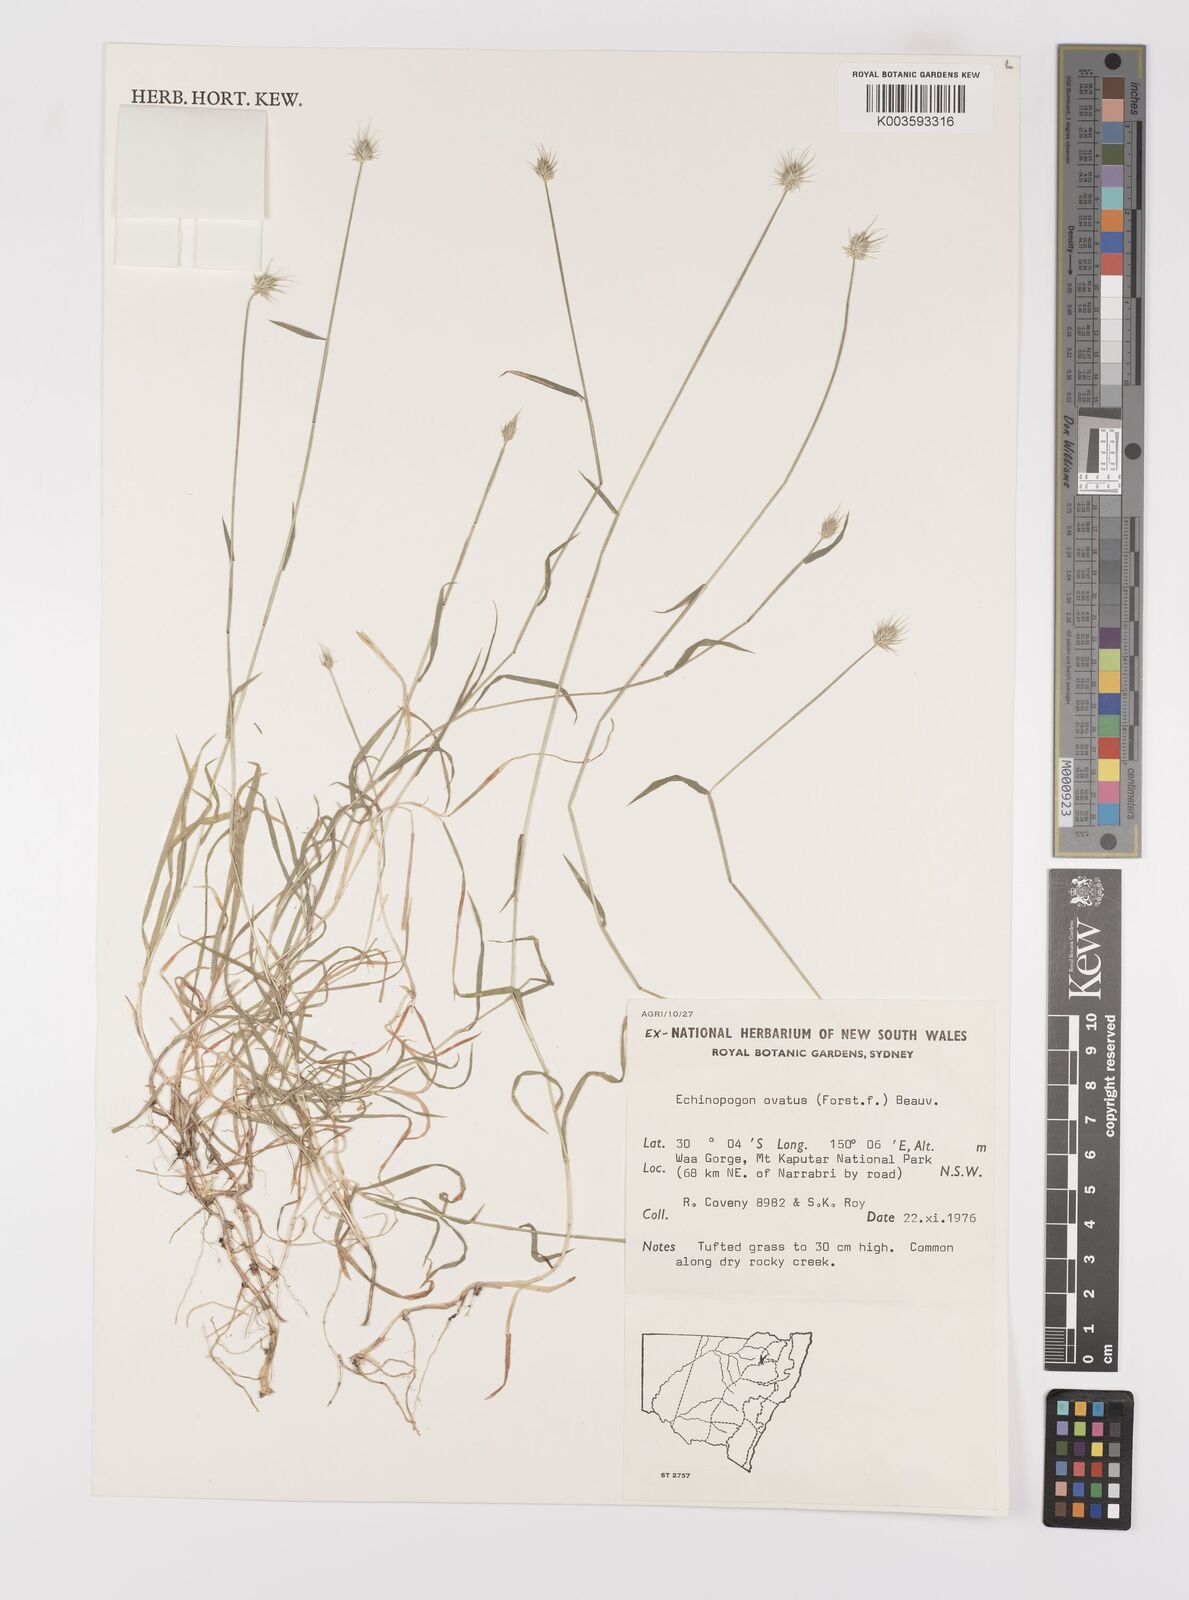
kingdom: Plantae
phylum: Tracheophyta
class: Liliopsida
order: Poales
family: Poaceae
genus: Echinopogon
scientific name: Echinopogon ovatus
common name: Hedgehog-grass
